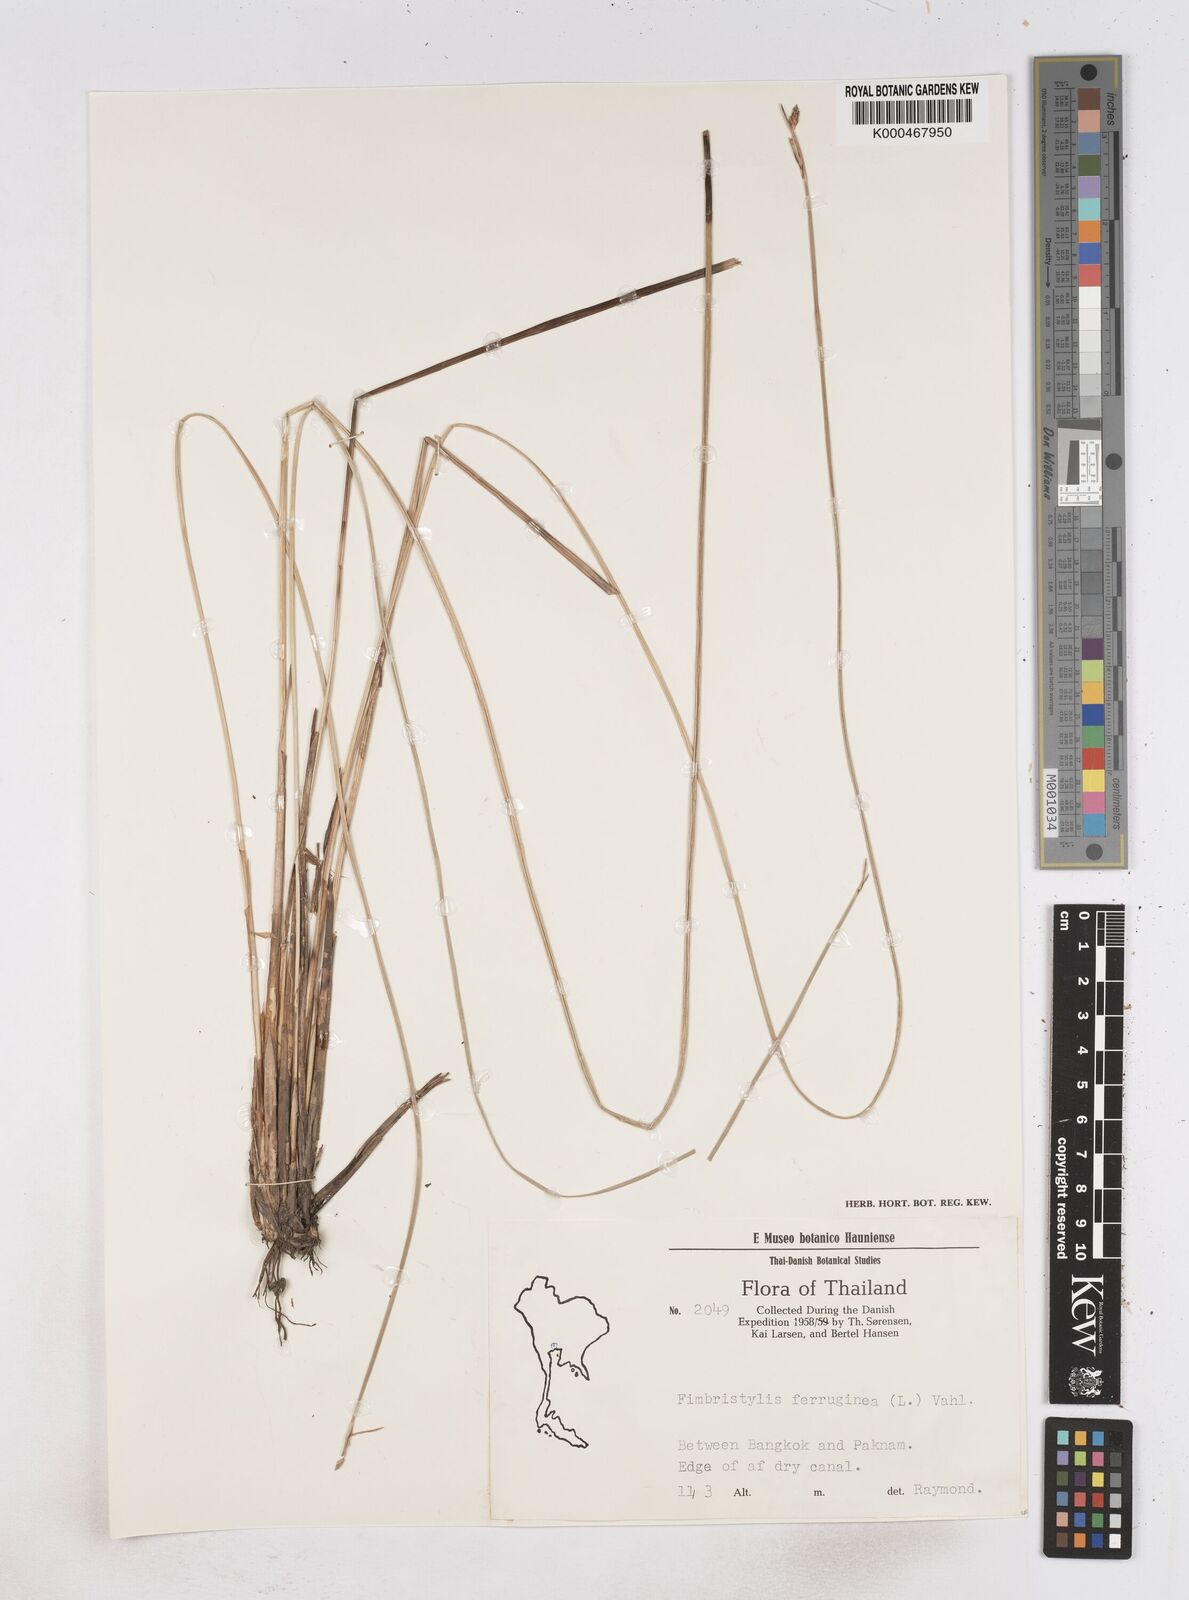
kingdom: Plantae
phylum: Tracheophyta
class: Liliopsida
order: Poales
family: Cyperaceae
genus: Fimbristylis
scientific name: Fimbristylis ferruginea
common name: West indian fimbry
